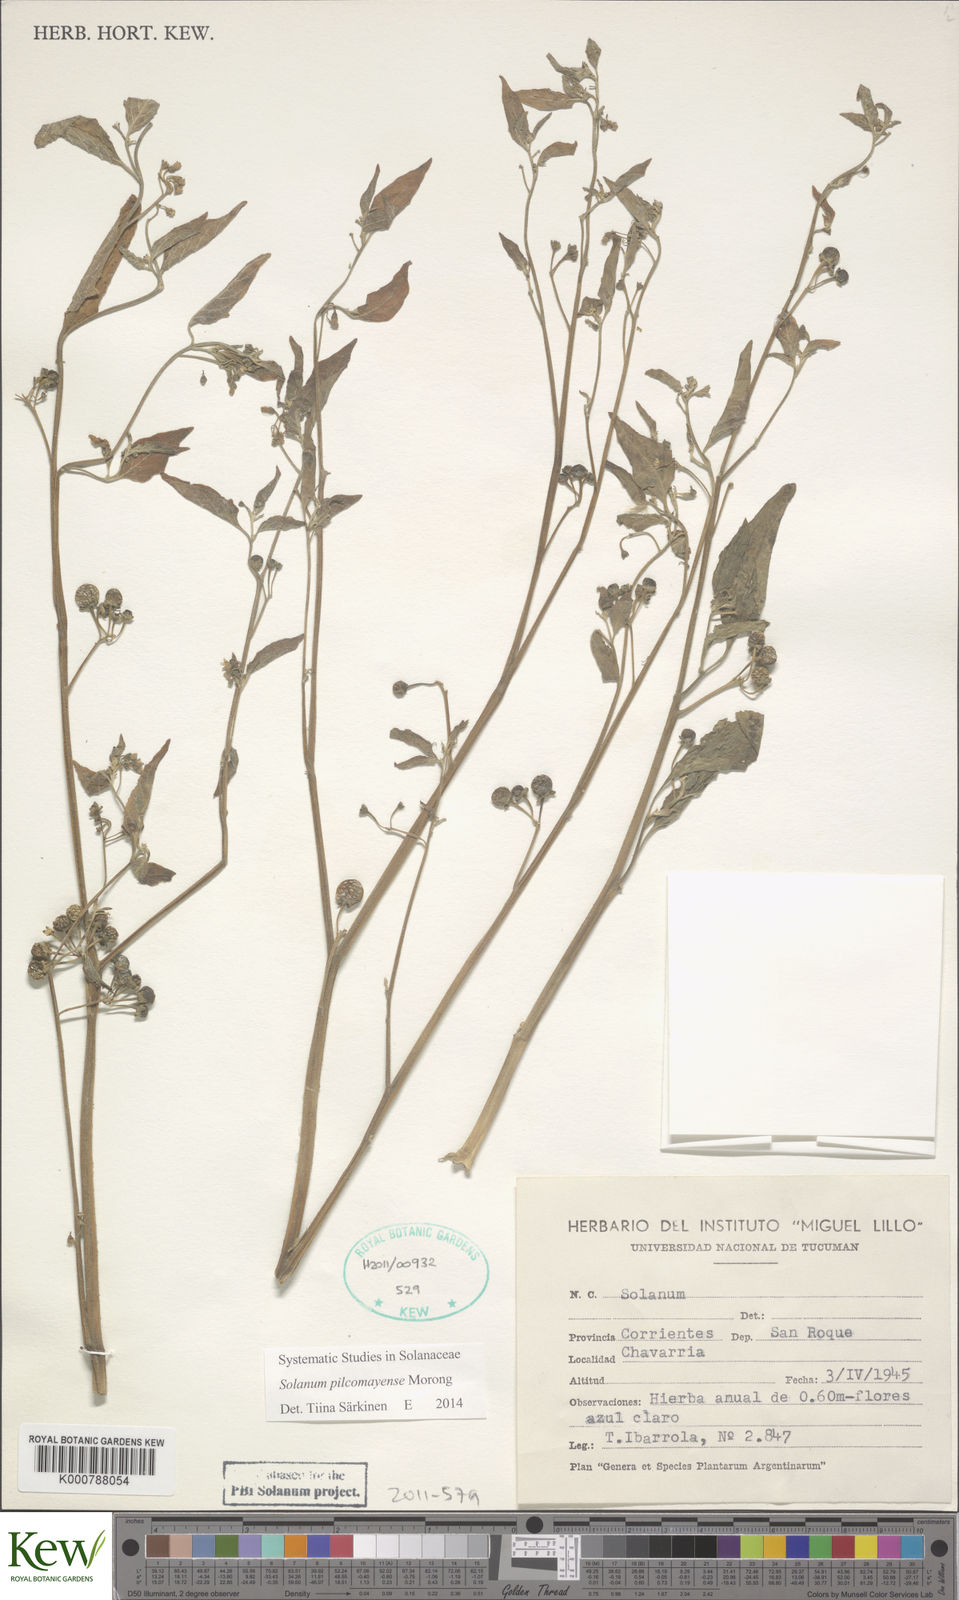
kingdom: Plantae
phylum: Tracheophyta
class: Magnoliopsida
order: Solanales
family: Solanaceae
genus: Solanum
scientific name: Solanum pilcomayense
